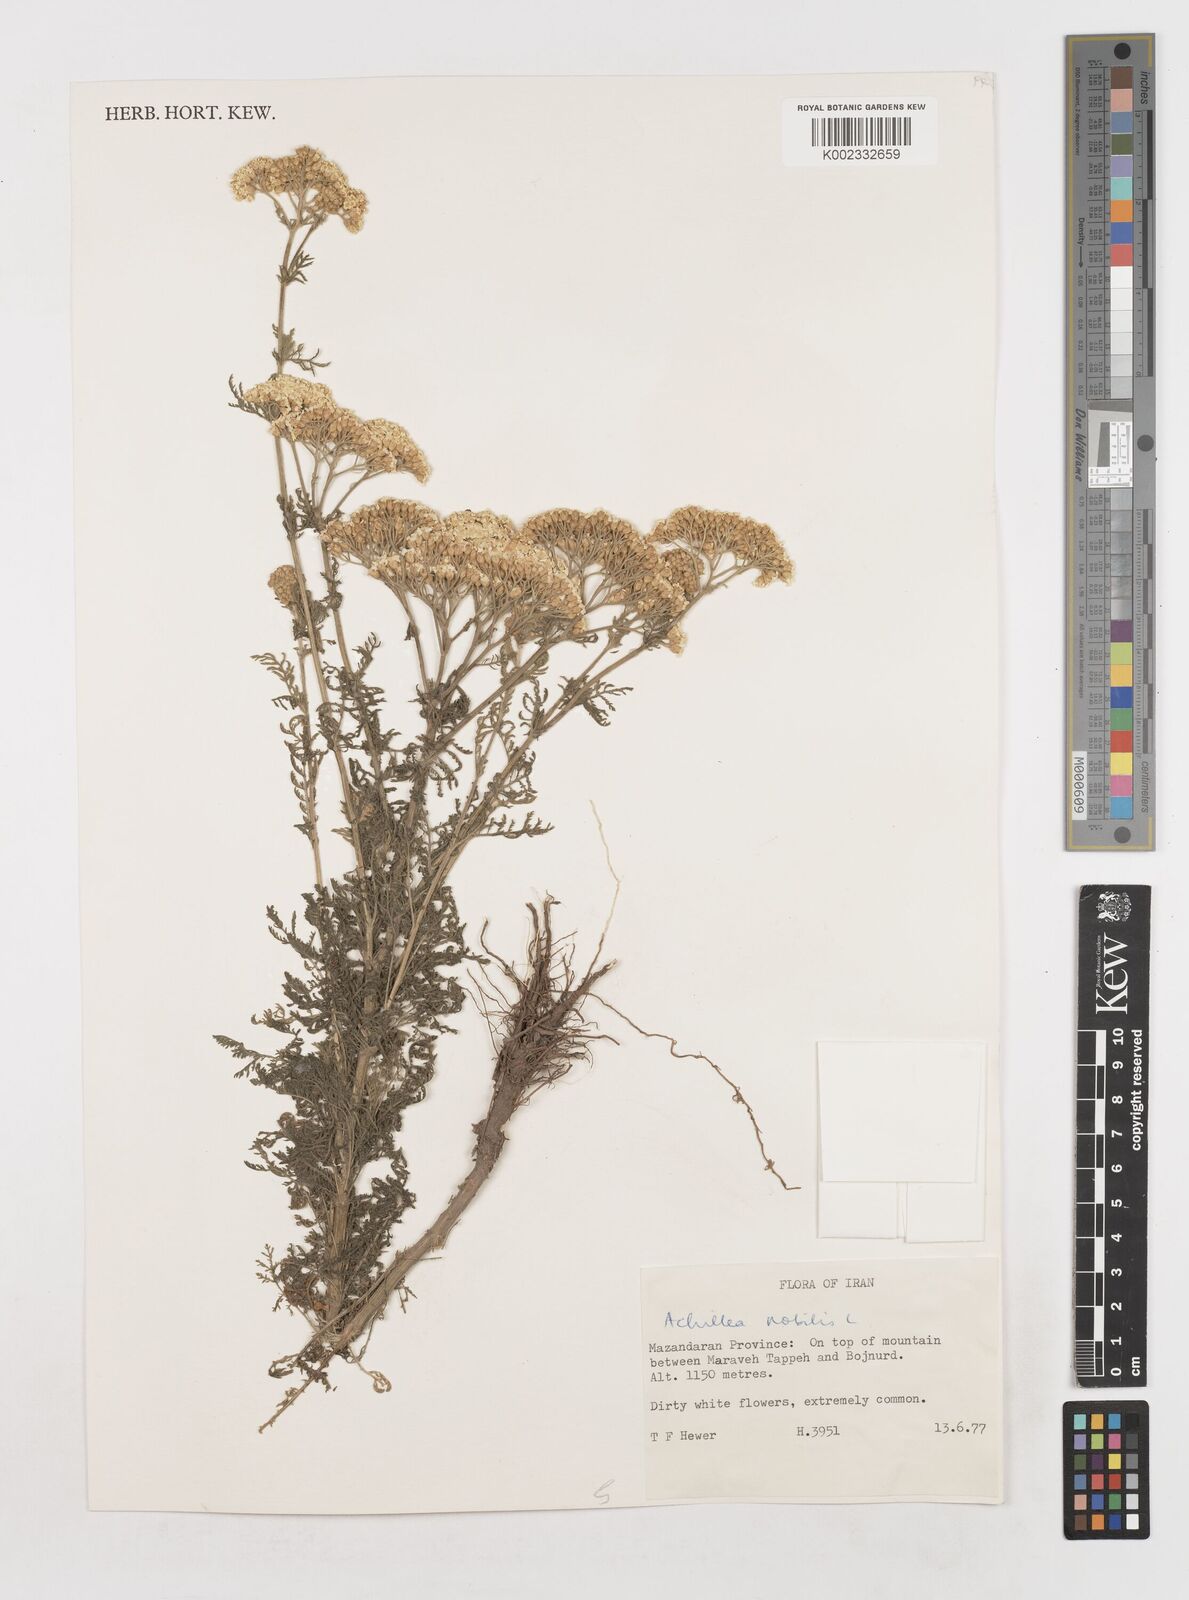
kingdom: Plantae
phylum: Tracheophyta
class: Magnoliopsida
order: Asterales
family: Asteraceae
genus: Achillea
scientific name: Achillea nobilis
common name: Noble yarrow
